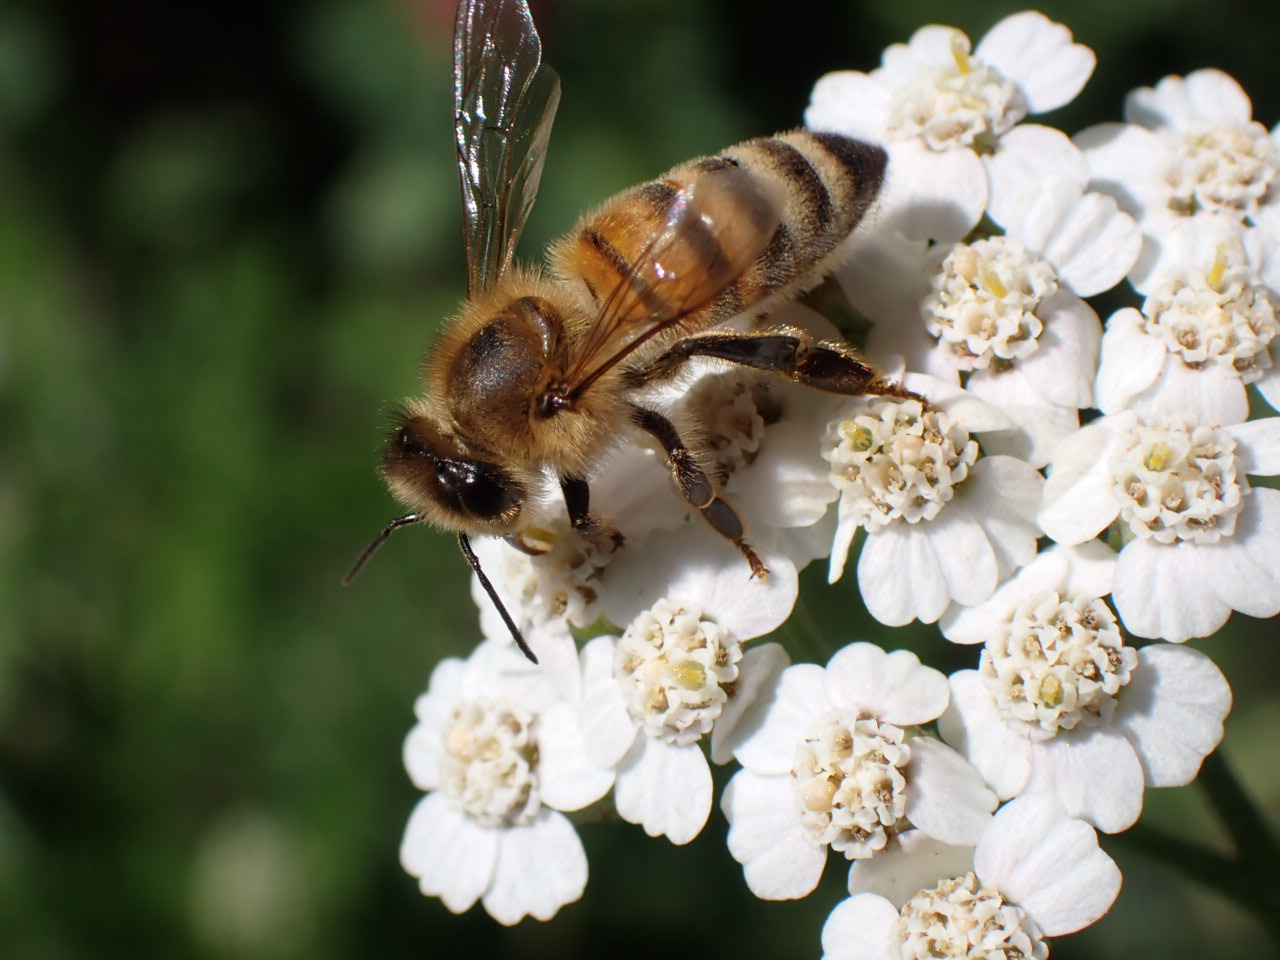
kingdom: Animalia
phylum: Arthropoda
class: Insecta
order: Hymenoptera
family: Apidae
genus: Apis
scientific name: Apis mellifera
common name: Honningbi
